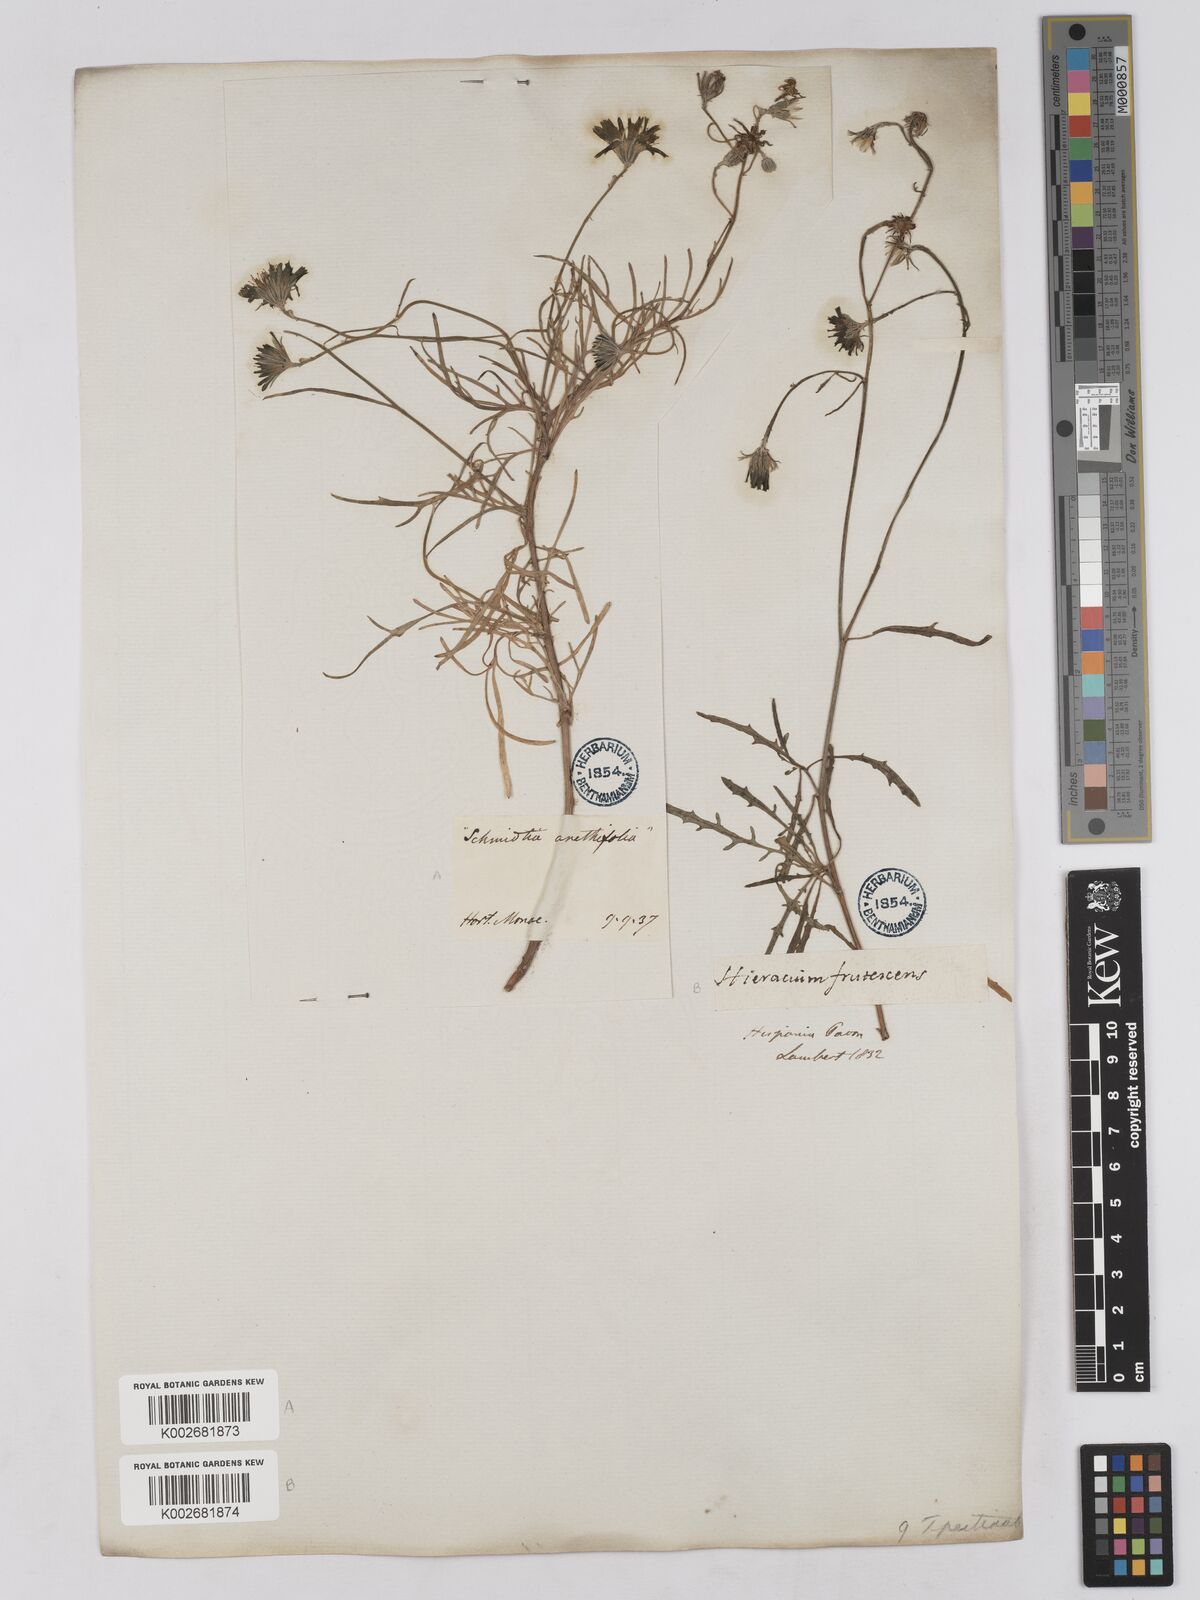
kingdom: Plantae
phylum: Tracheophyta
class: Magnoliopsida
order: Asterales
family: Asteraceae
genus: Tolpis
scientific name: Tolpis succulenta
